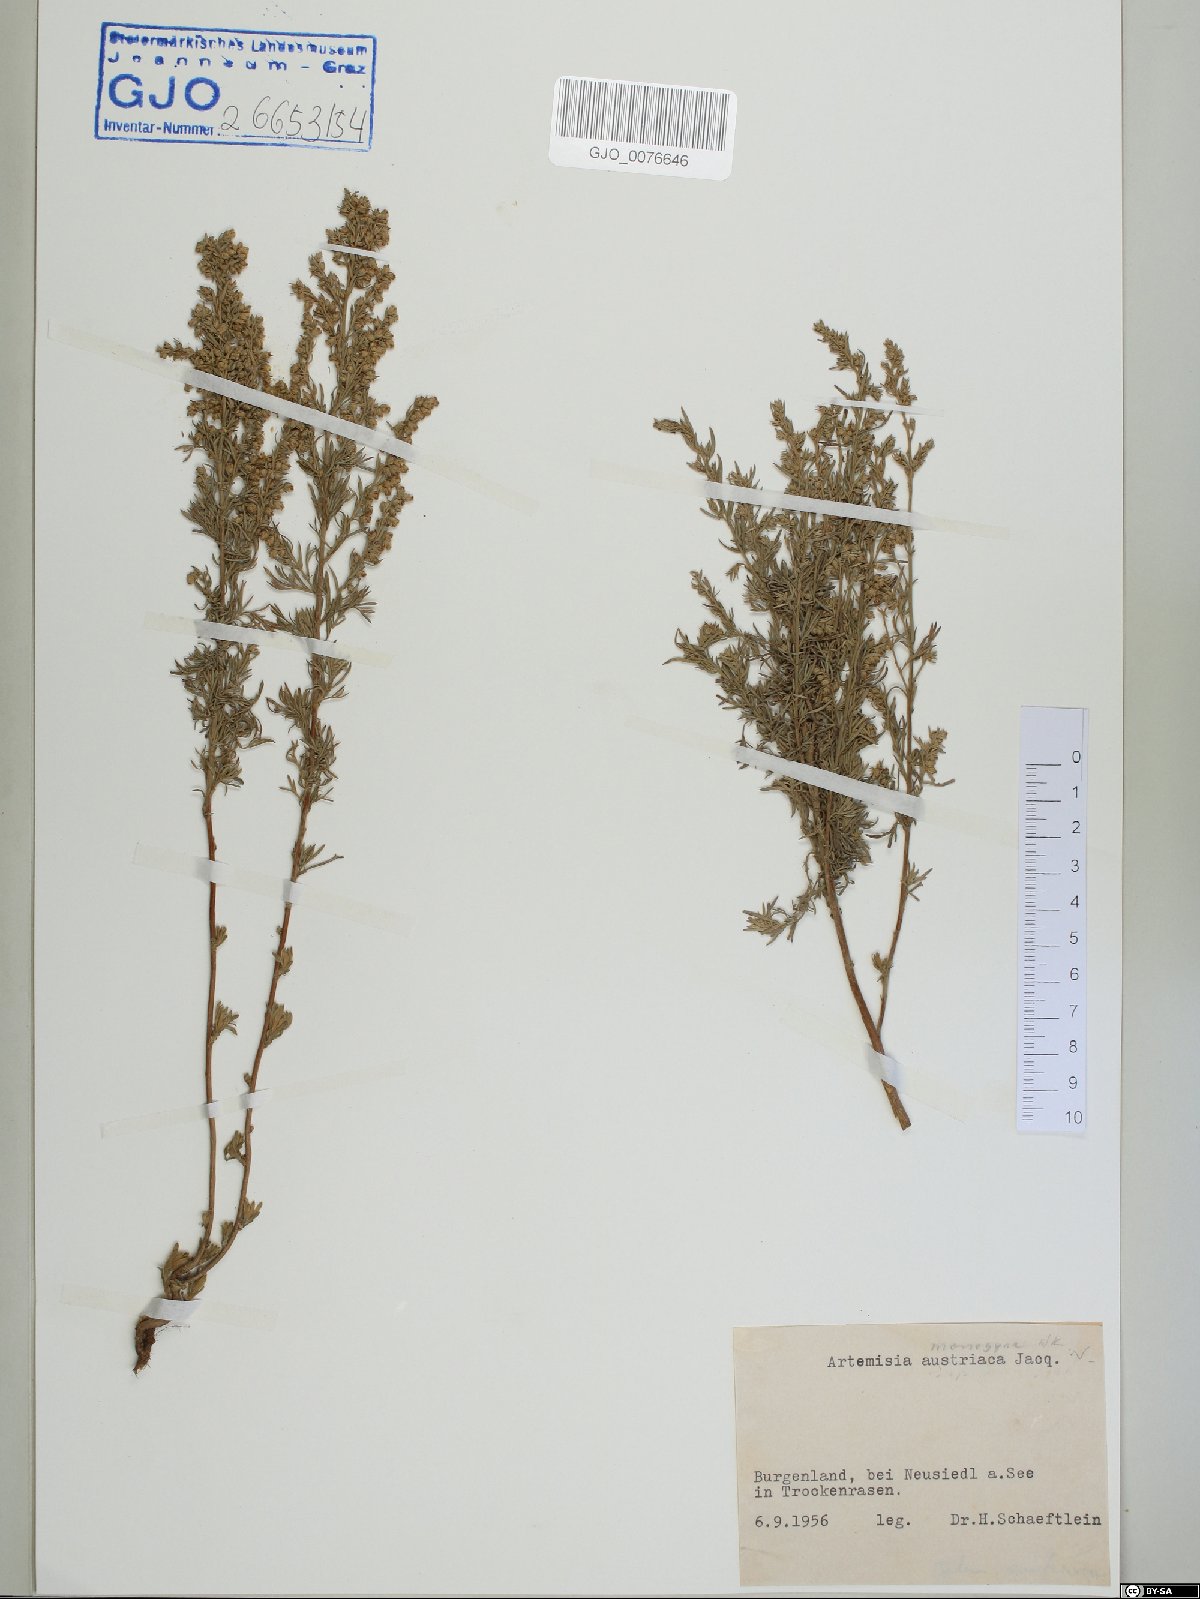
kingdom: Plantae
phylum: Tracheophyta
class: Magnoliopsida
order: Asterales
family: Asteraceae
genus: Artemisia
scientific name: Artemisia austriaca
